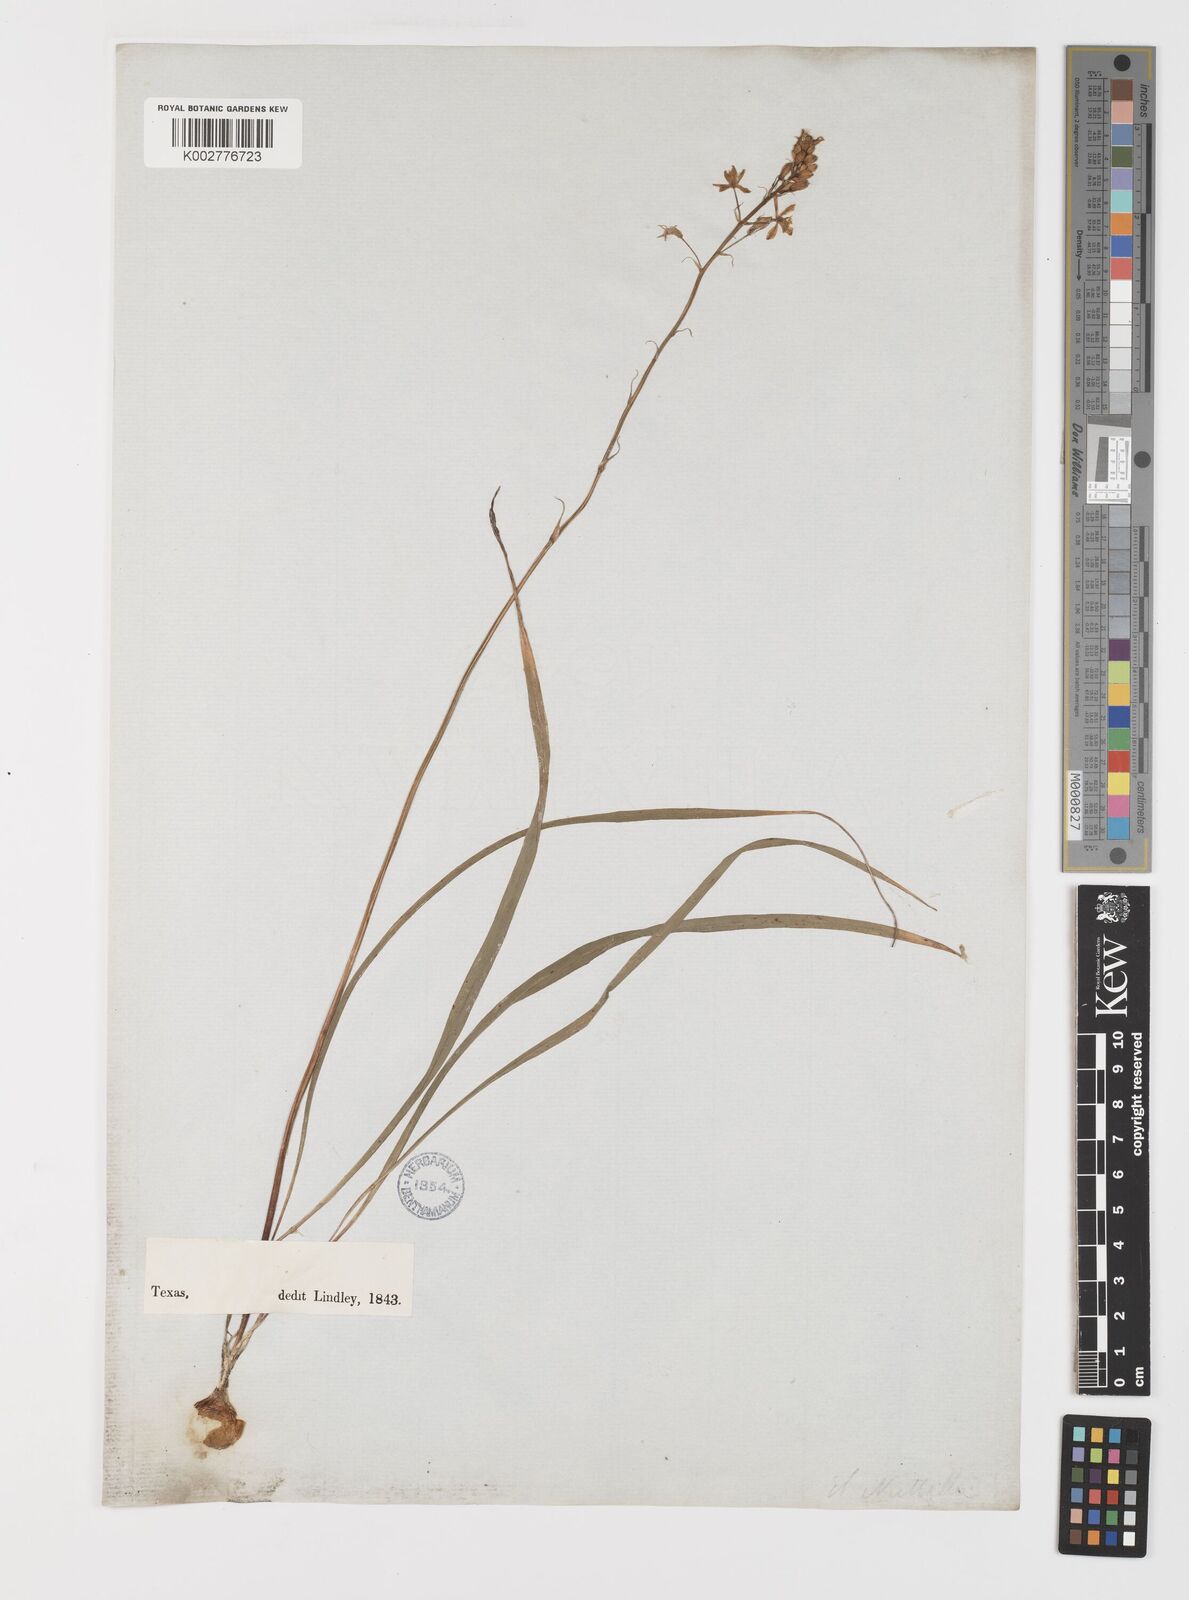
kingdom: Plantae
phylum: Tracheophyta
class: Liliopsida
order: Liliales
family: Melanthiaceae
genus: Stenanthium
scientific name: Stenanthium densum
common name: Crow-poison
